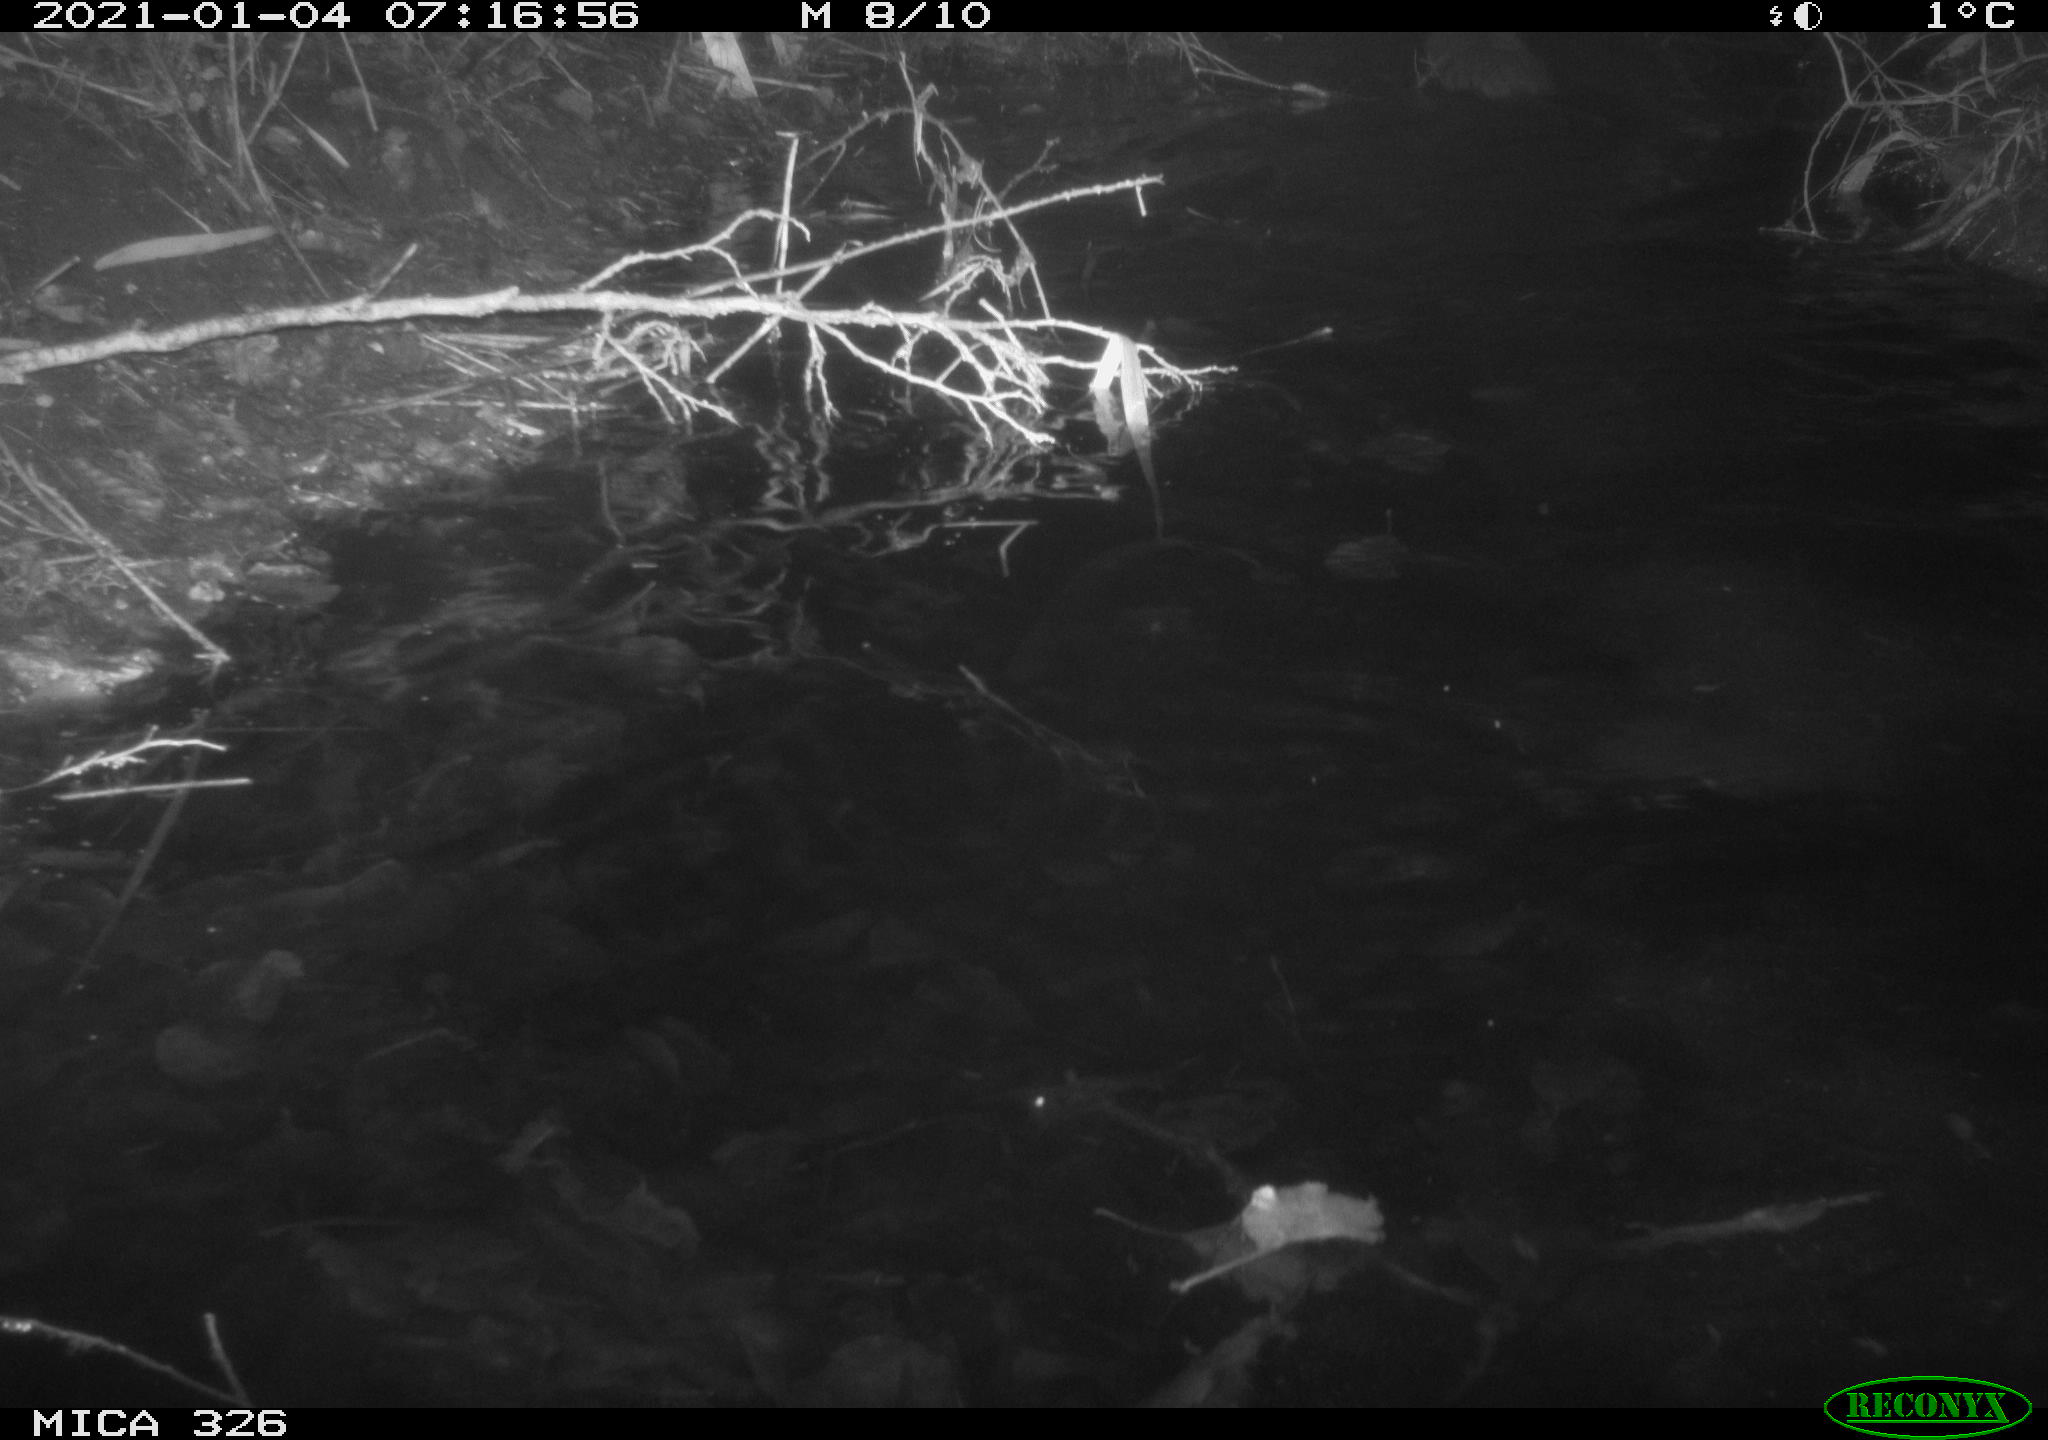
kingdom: Animalia
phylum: Chordata
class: Mammalia
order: Rodentia
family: Myocastoridae
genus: Myocastor
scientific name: Myocastor coypus
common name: Coypu
